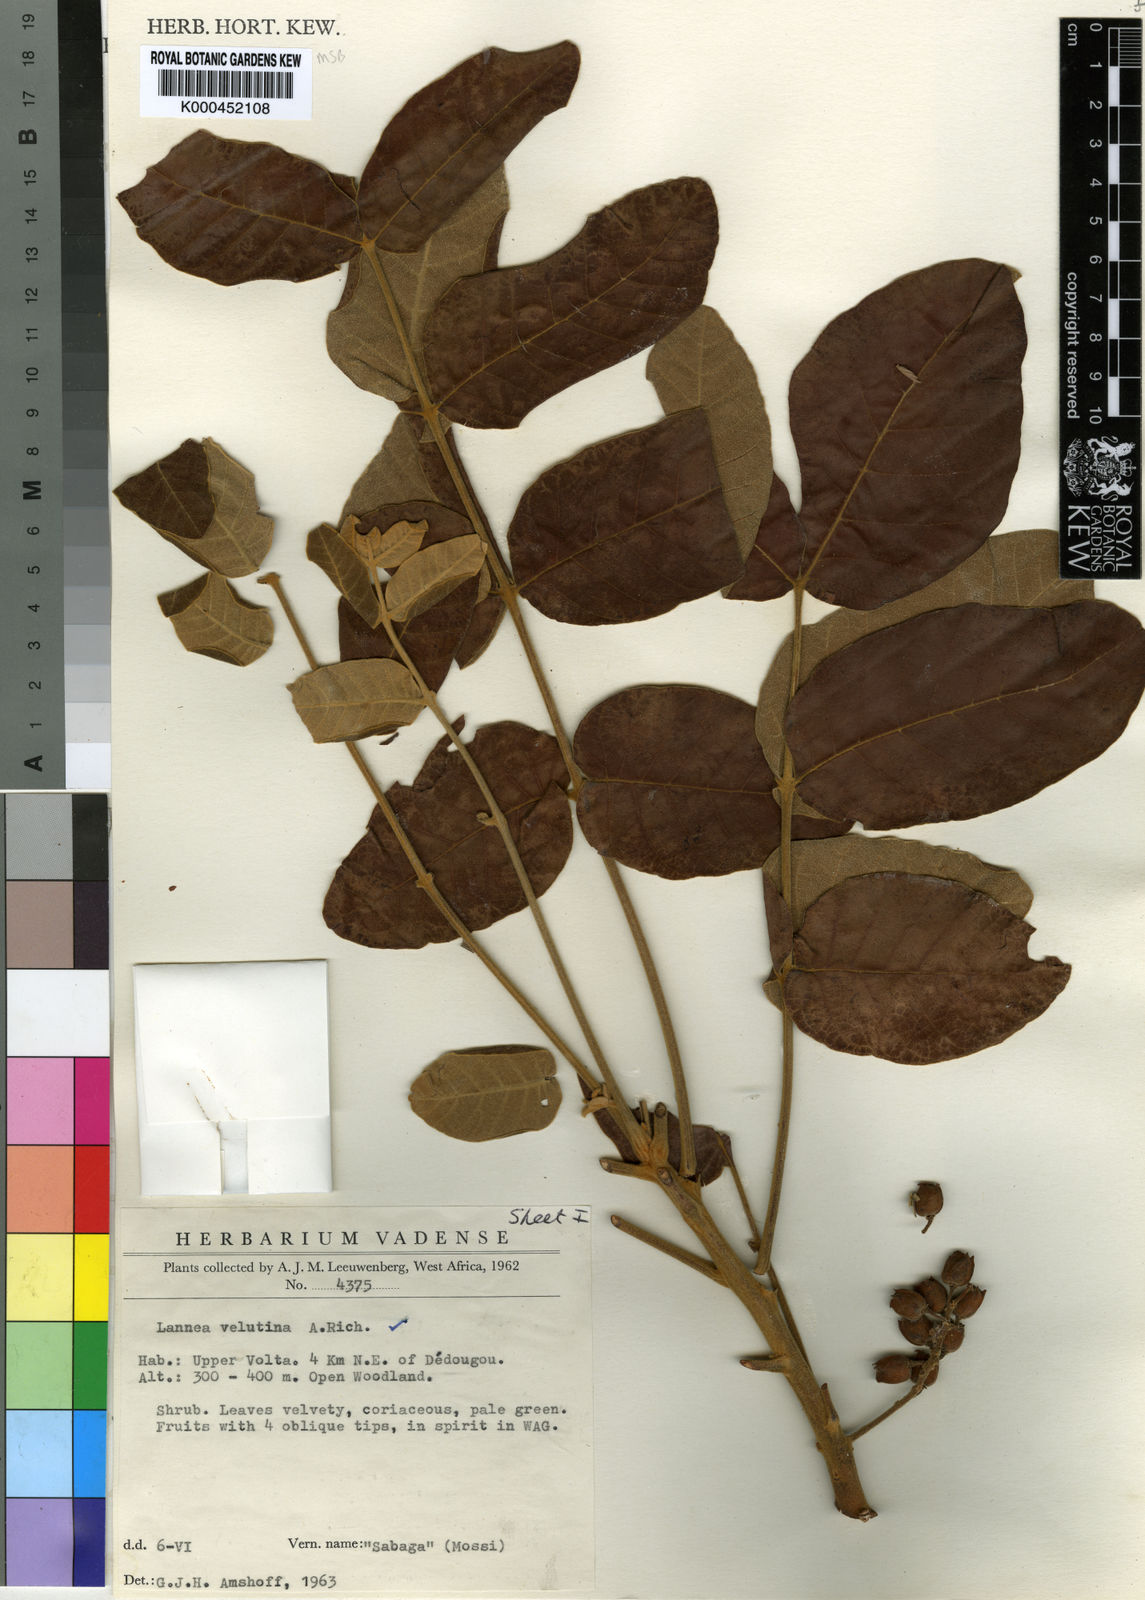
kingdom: Plantae
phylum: Tracheophyta
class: Magnoliopsida
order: Sapindales
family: Anacardiaceae
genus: Lannea
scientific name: Lannea velutina
